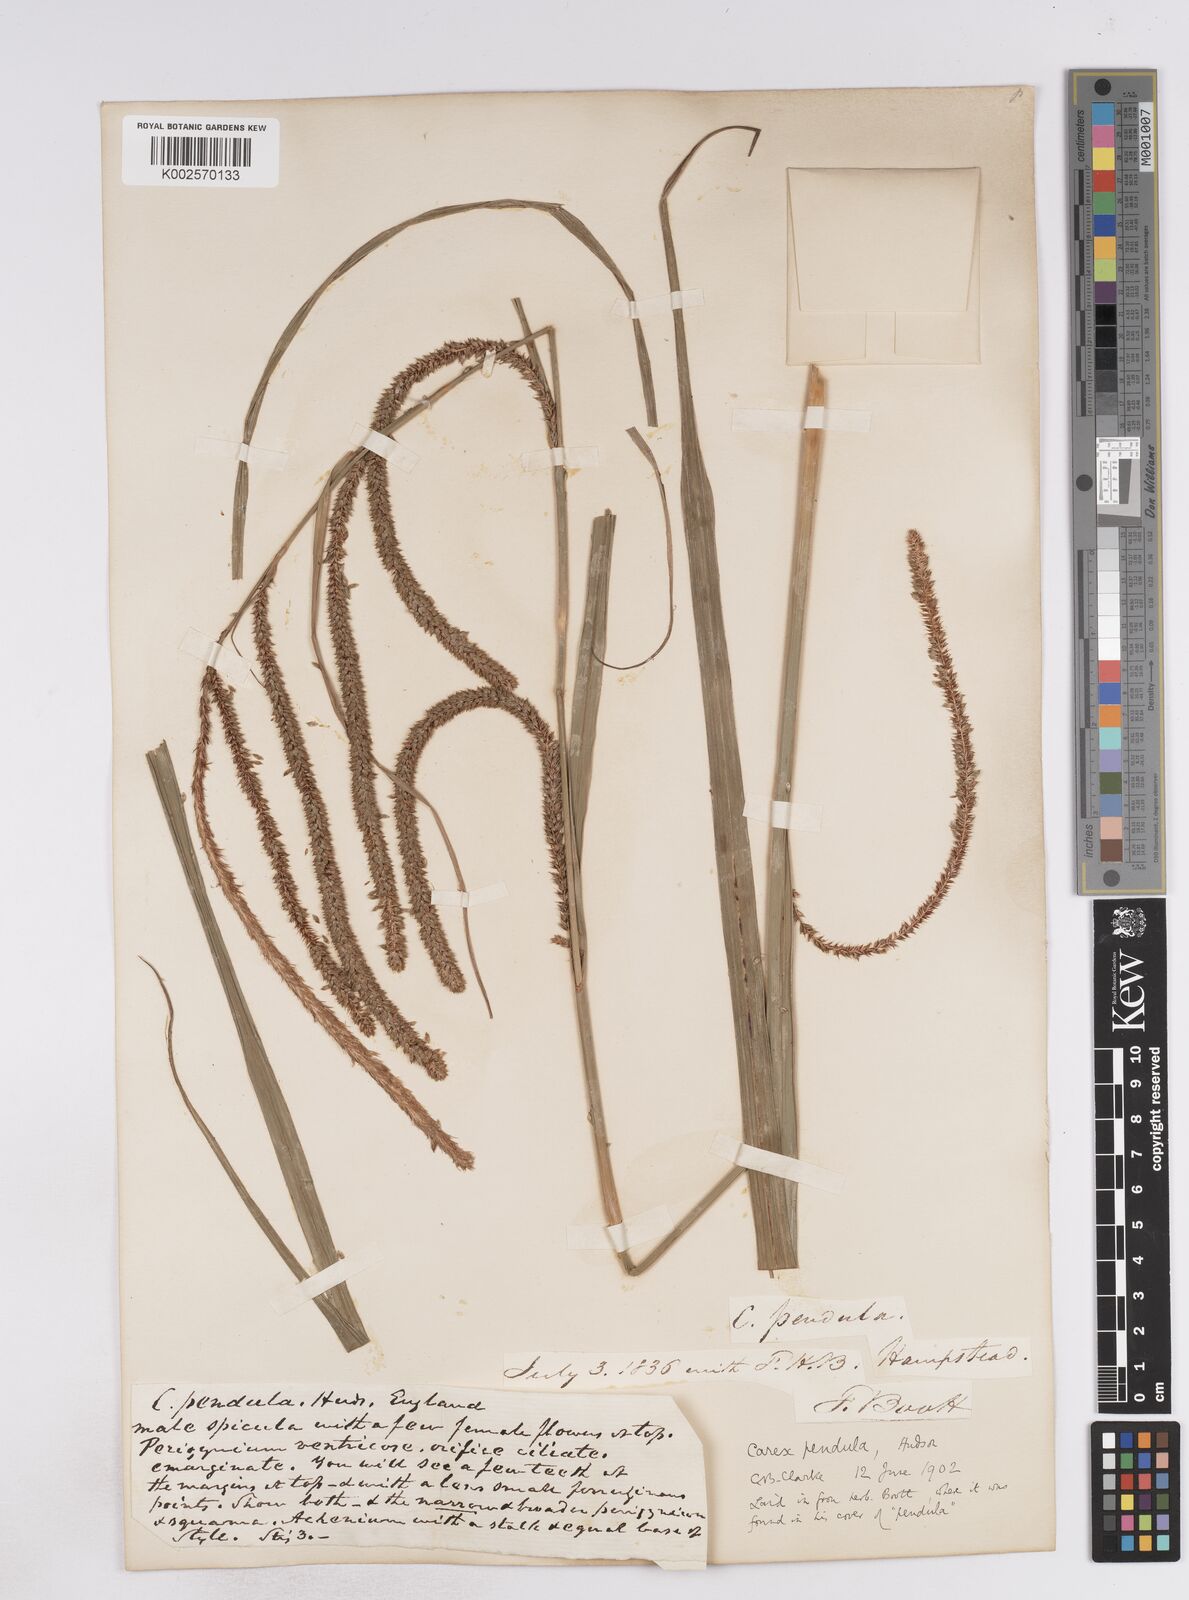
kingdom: Plantae
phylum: Tracheophyta
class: Liliopsida
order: Poales
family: Cyperaceae
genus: Carex
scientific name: Carex pendula
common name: Pendulous sedge
